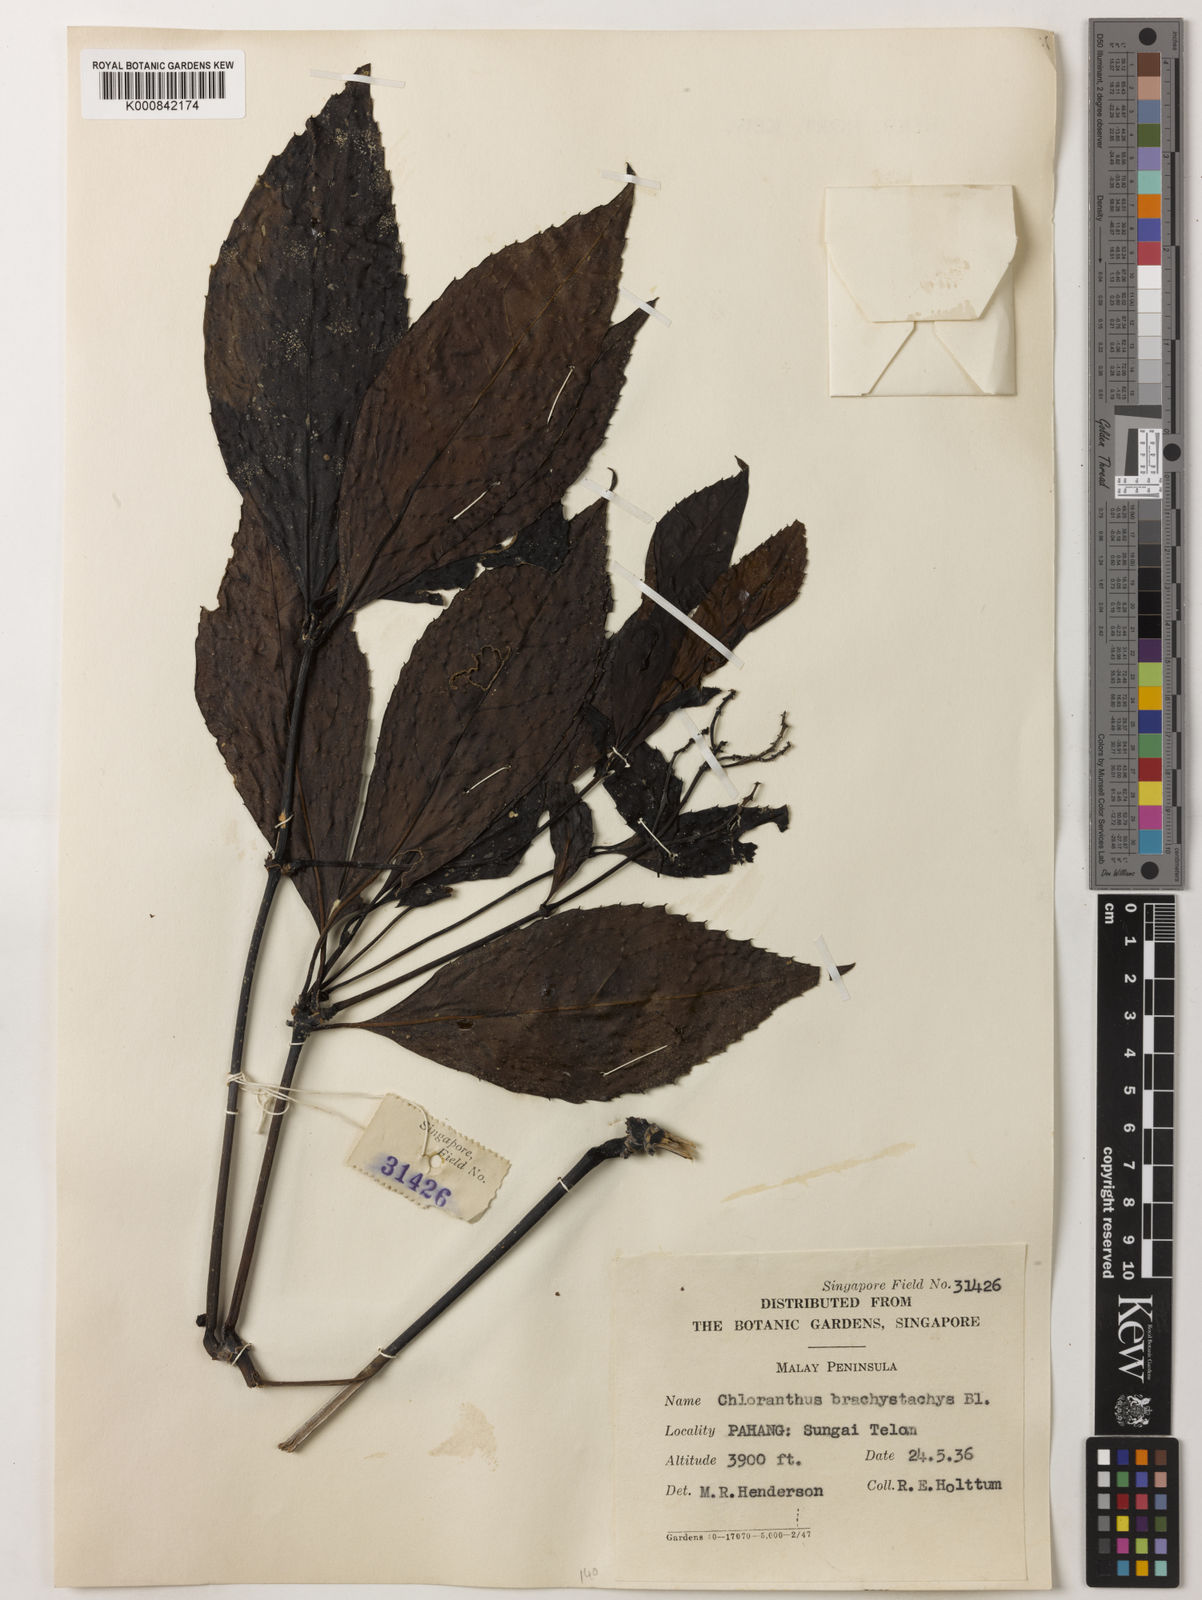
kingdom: Plantae
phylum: Tracheophyta
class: Magnoliopsida
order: Chloranthales
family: Chloranthaceae
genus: Sarcandra
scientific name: Sarcandra glabra
